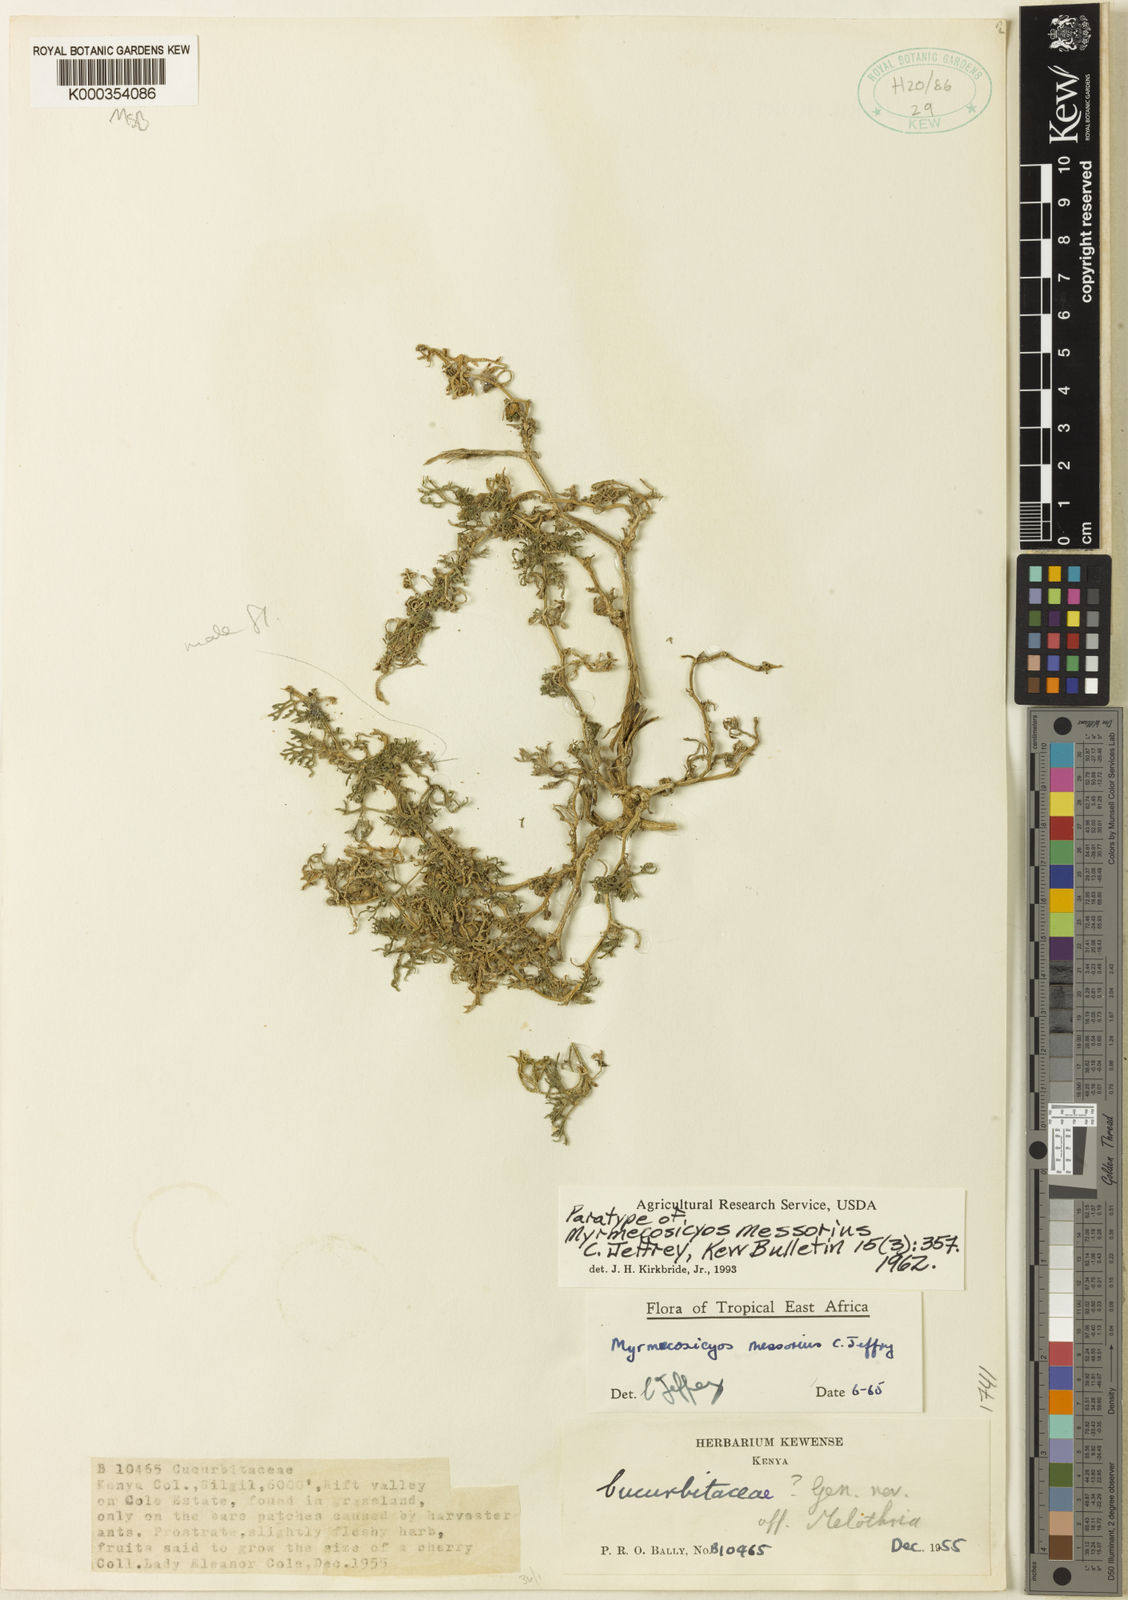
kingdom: Plantae
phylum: Tracheophyta
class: Magnoliopsida
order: Cucurbitales
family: Cucurbitaceae
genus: Cucumis
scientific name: Cucumis messorius
